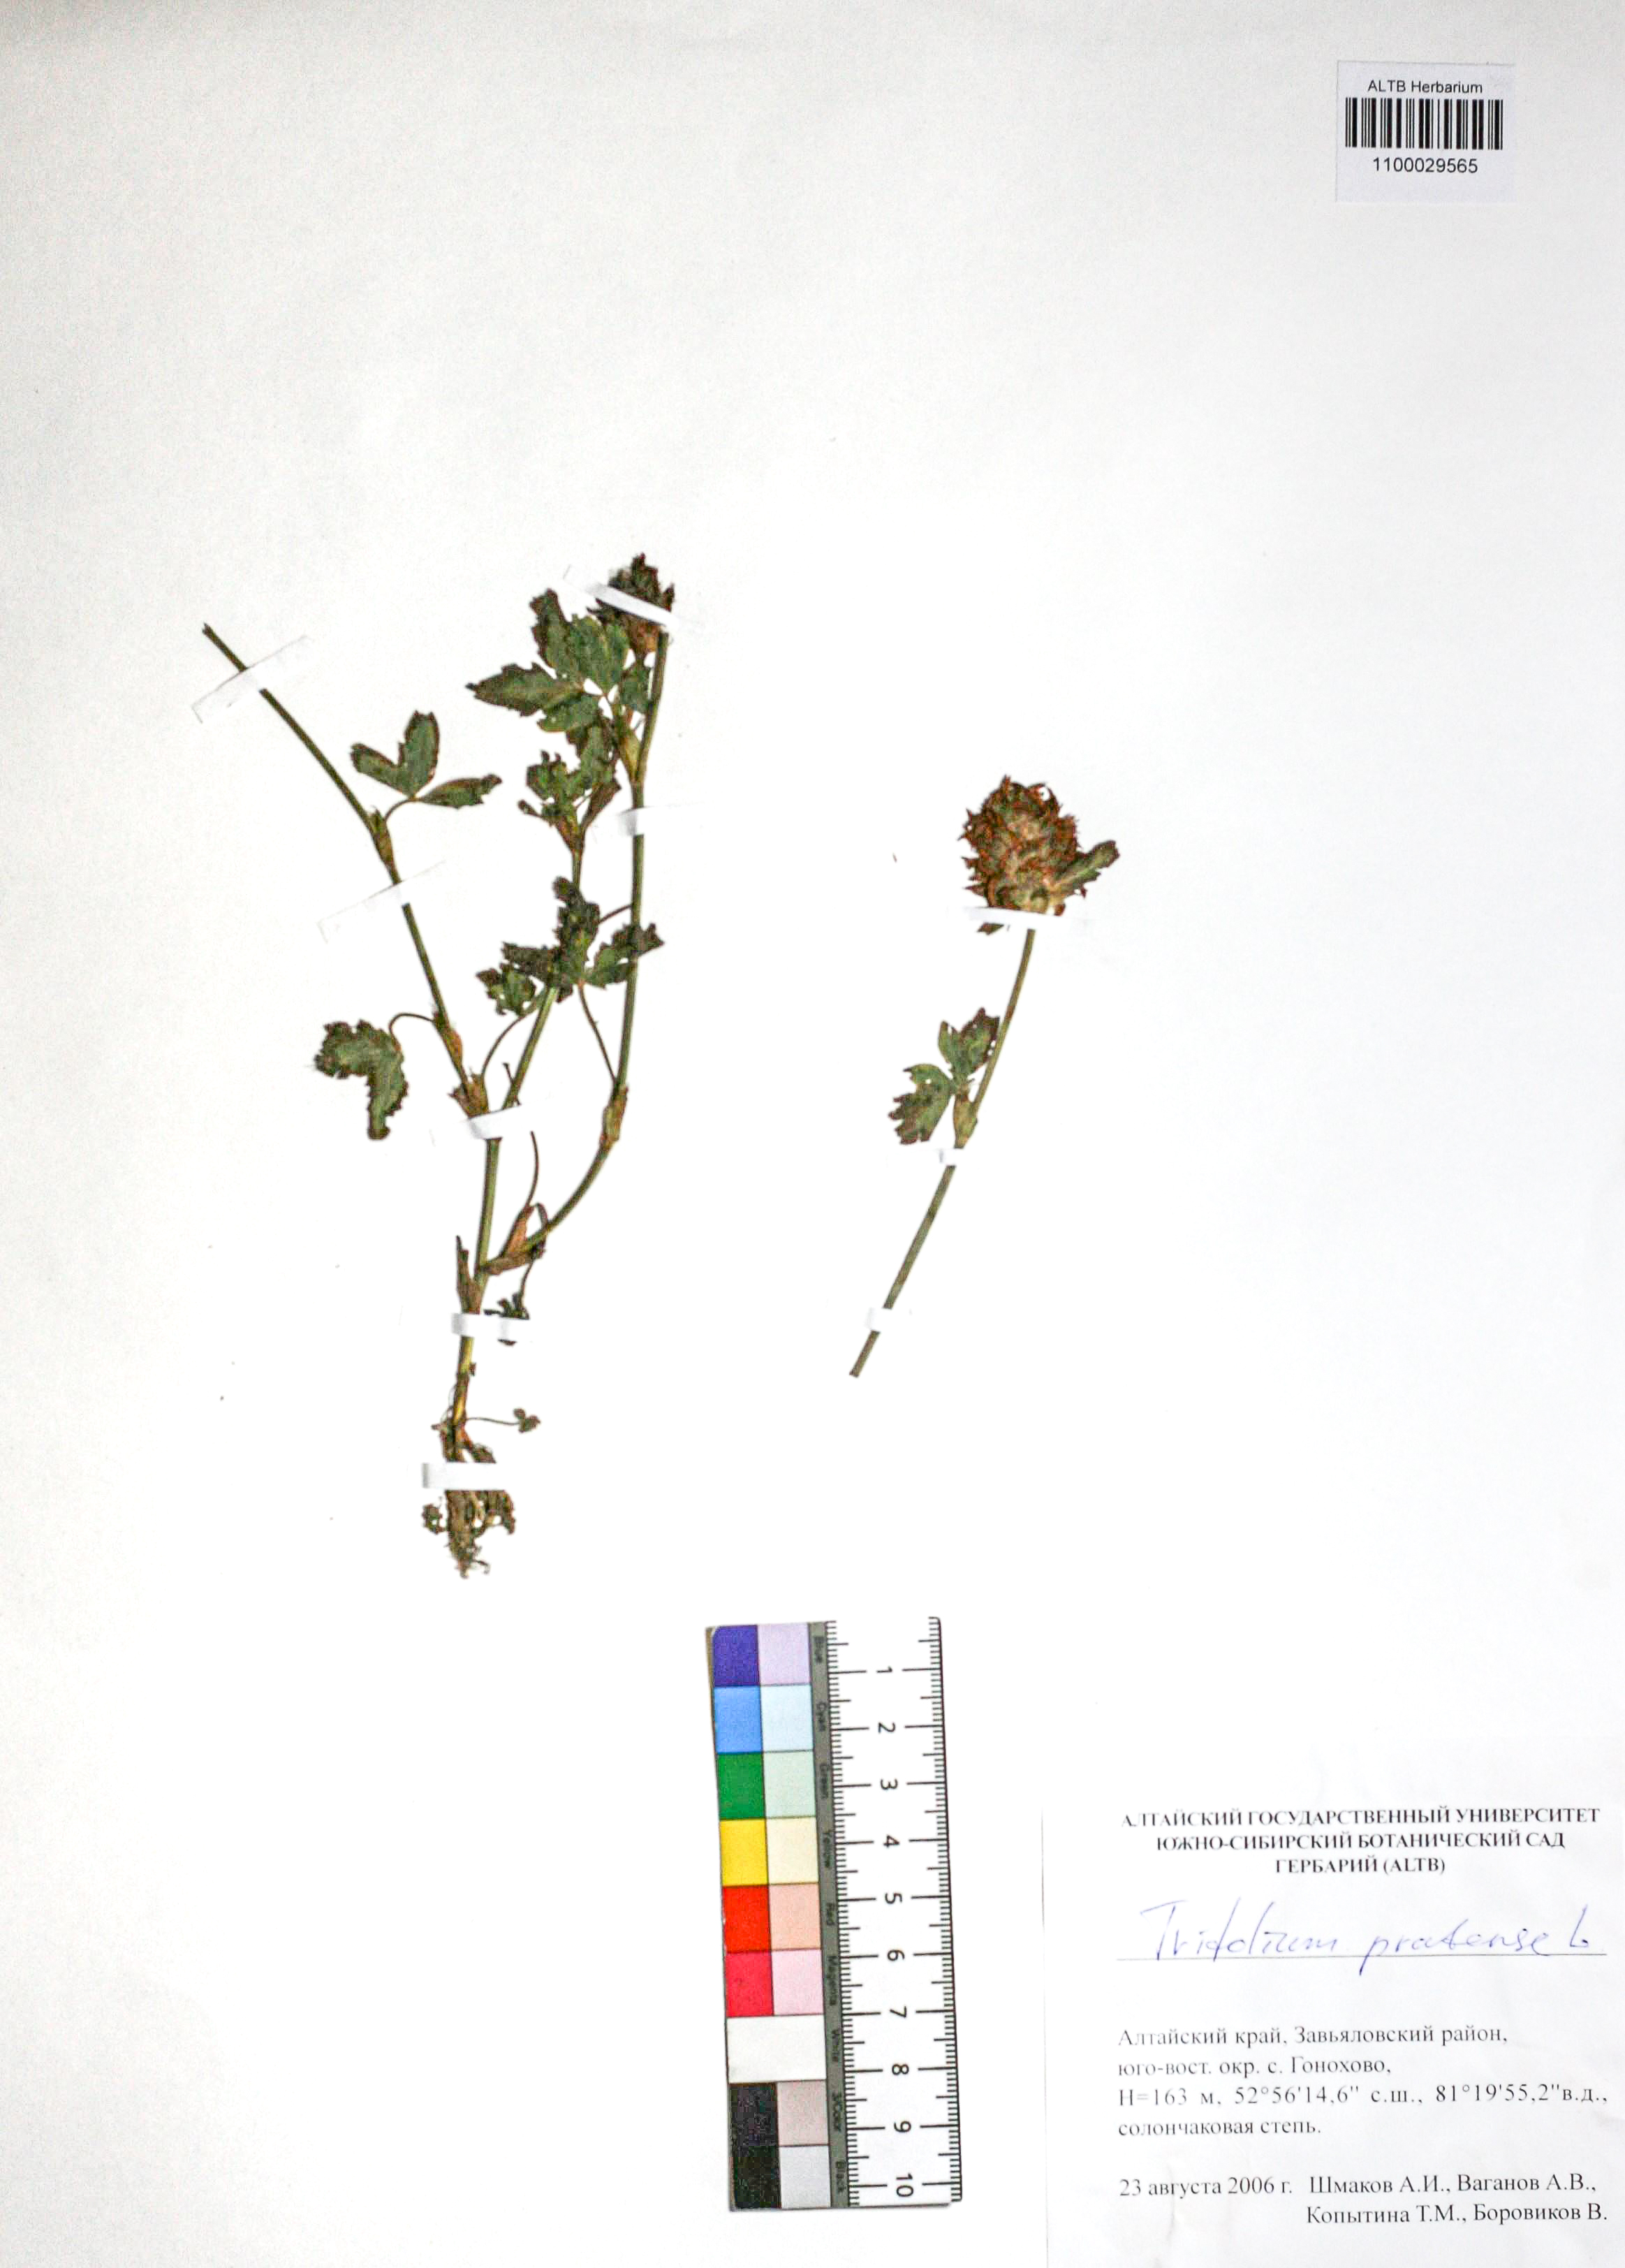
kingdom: Plantae
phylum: Tracheophyta
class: Magnoliopsida
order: Fabales
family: Fabaceae
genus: Trifolium
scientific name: Trifolium pratense
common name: Red clover
